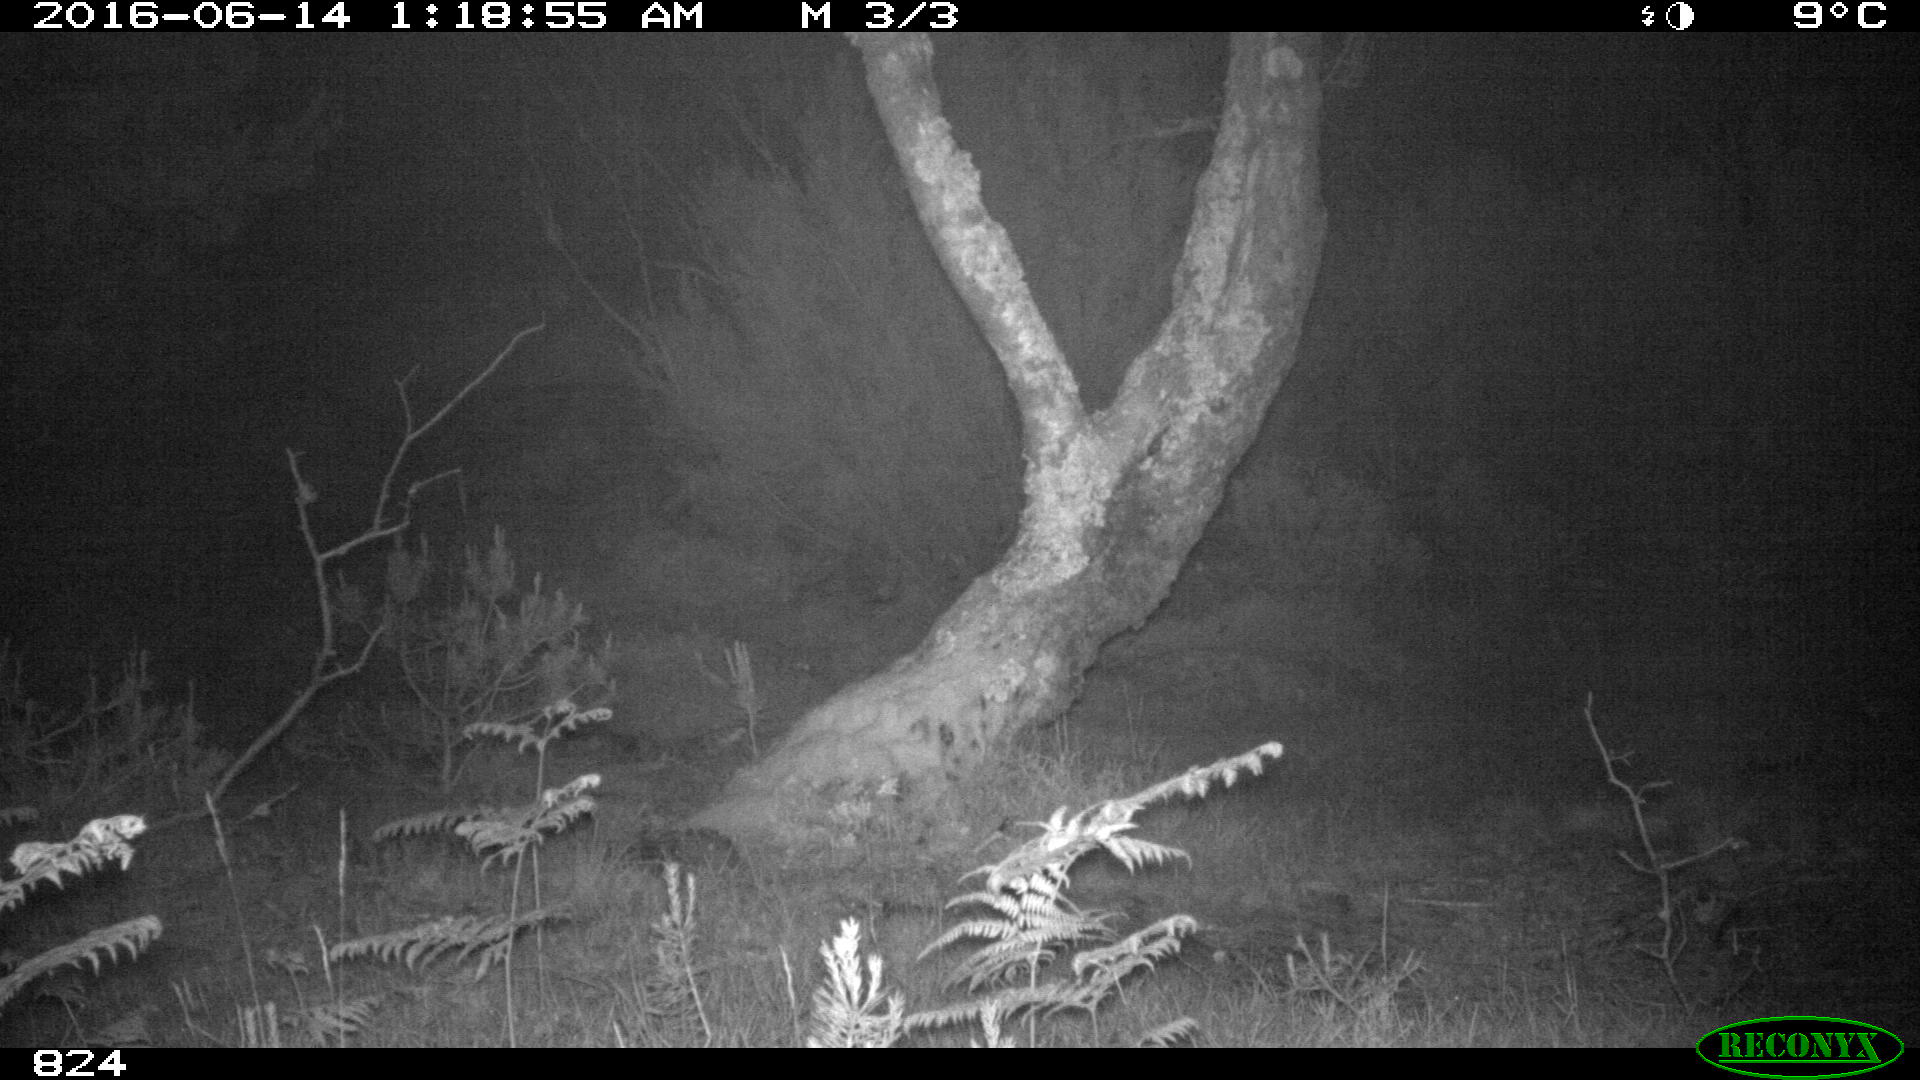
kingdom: Animalia
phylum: Chordata
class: Mammalia
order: Carnivora
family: Canidae
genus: Canis
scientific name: Canis lupus
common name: Gray wolf
